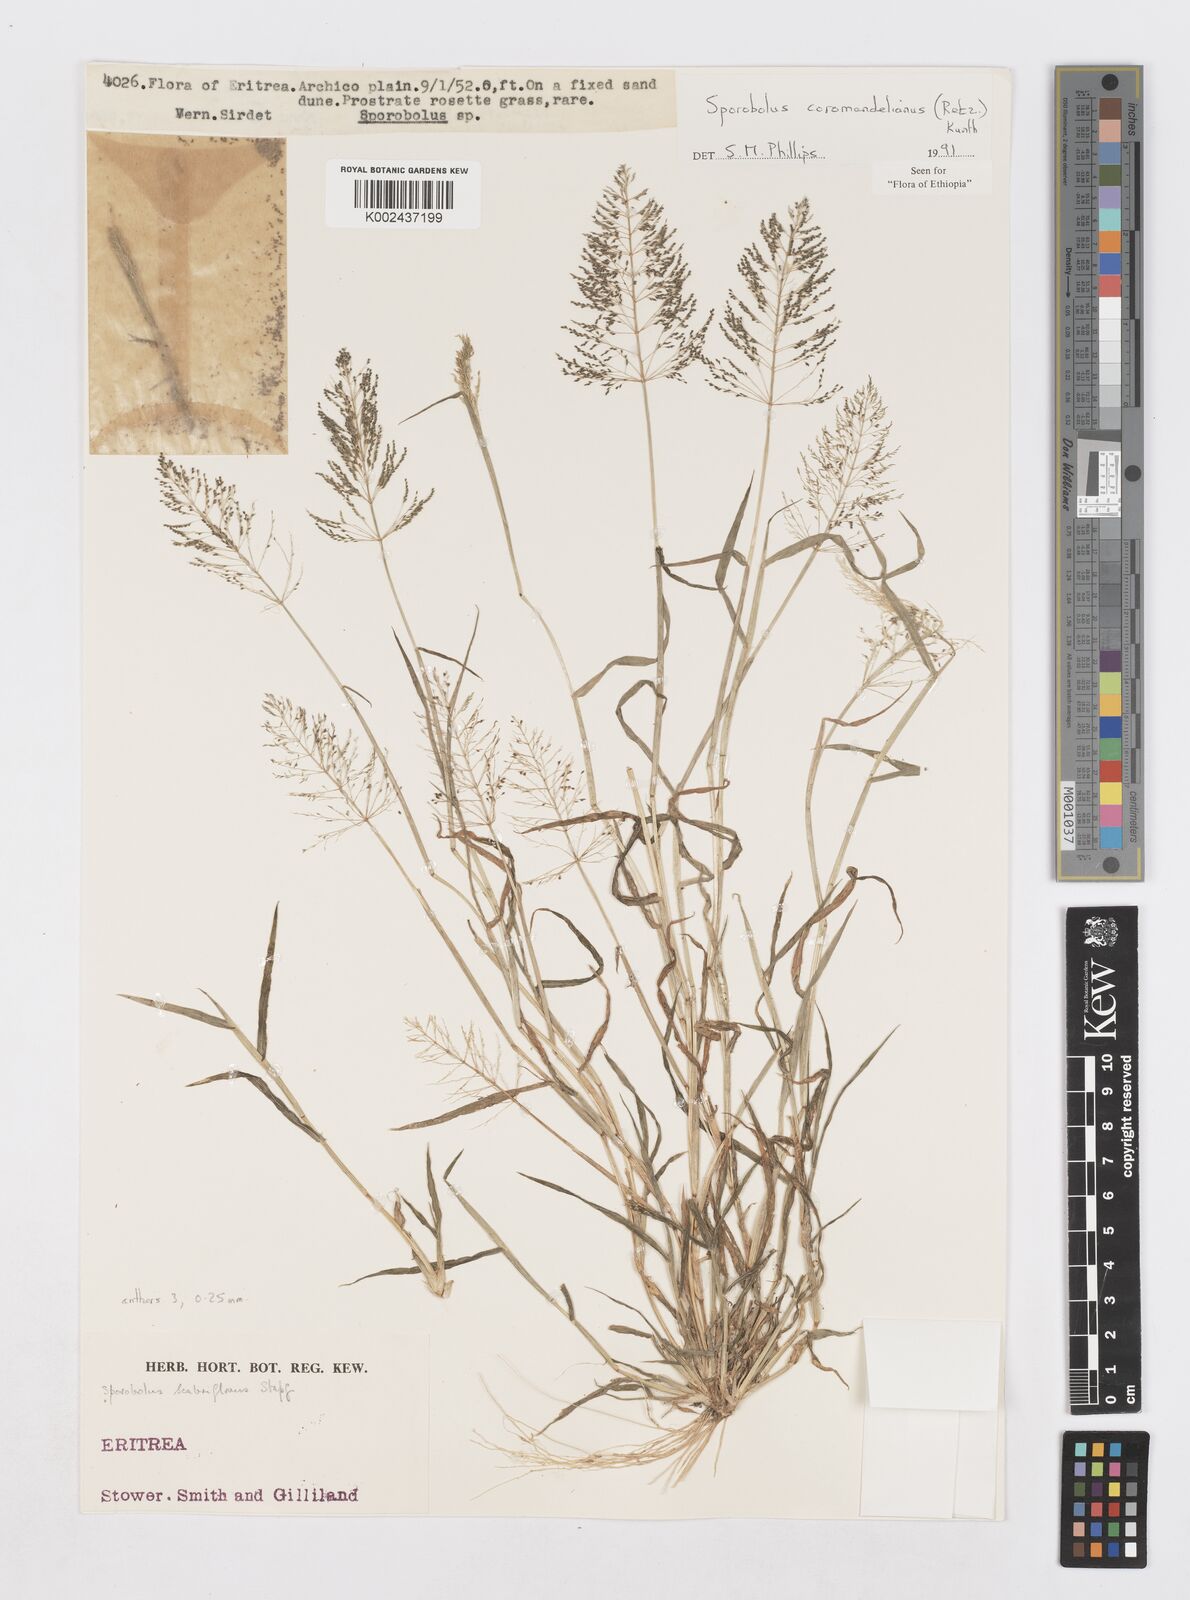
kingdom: Plantae
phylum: Tracheophyta
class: Liliopsida
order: Poales
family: Poaceae
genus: Sporobolus
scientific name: Sporobolus coromandelianus
